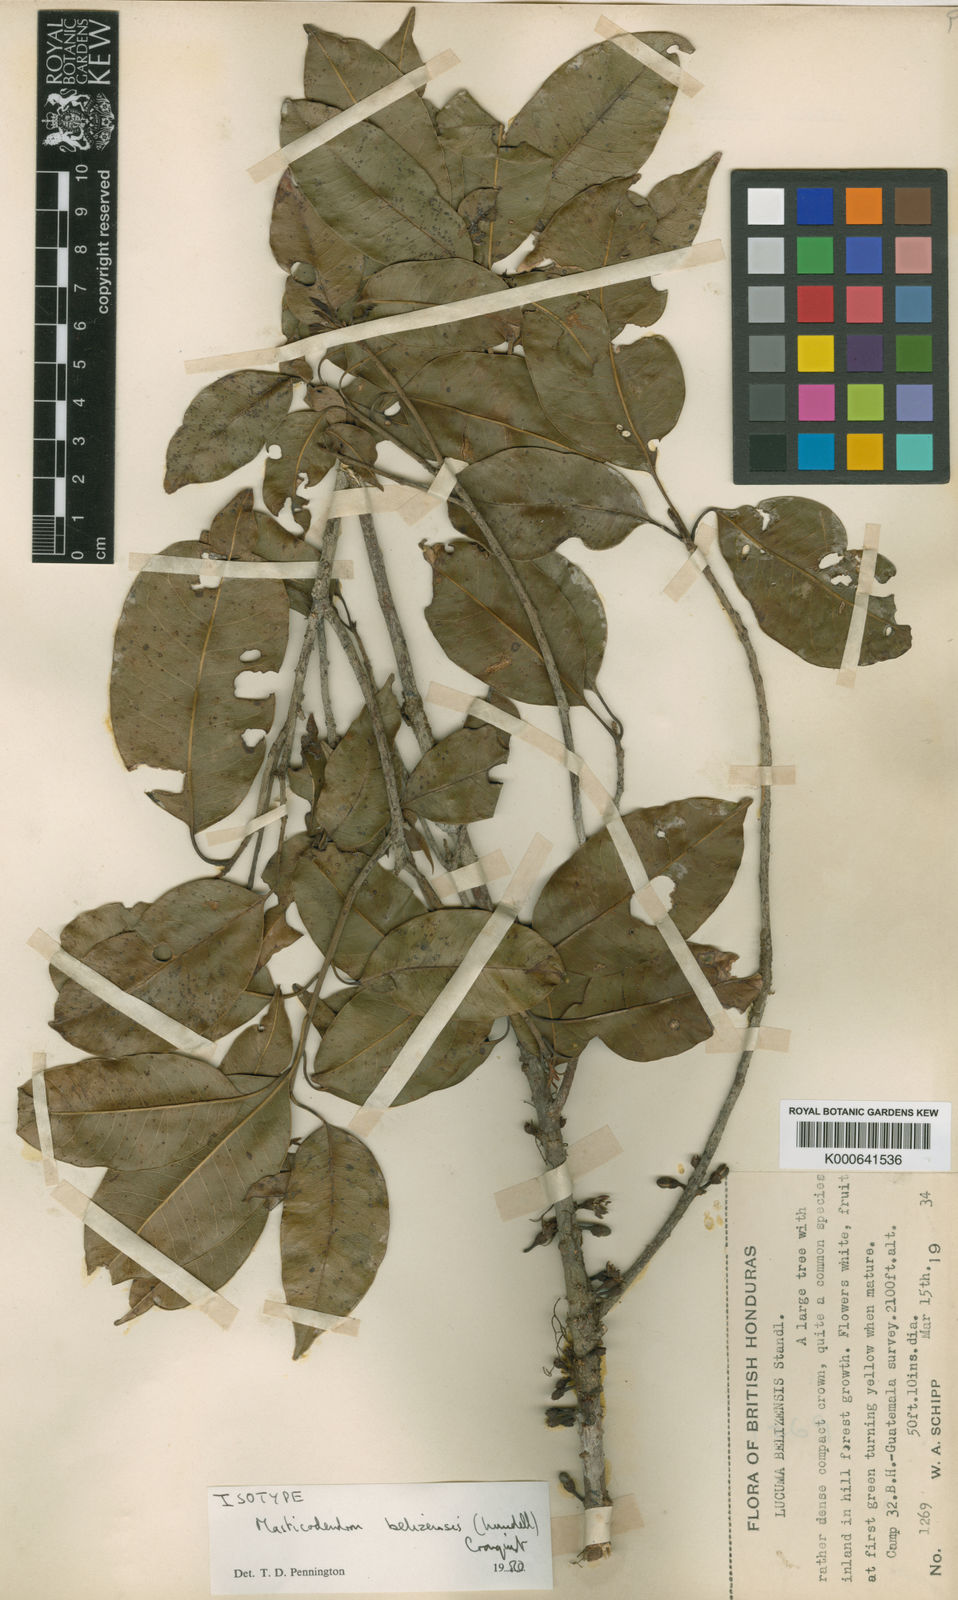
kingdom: Plantae
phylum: Tracheophyta
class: Magnoliopsida
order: Ericales
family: Sapotaceae
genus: Sideroxylon
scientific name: Sideroxylon floribundum
